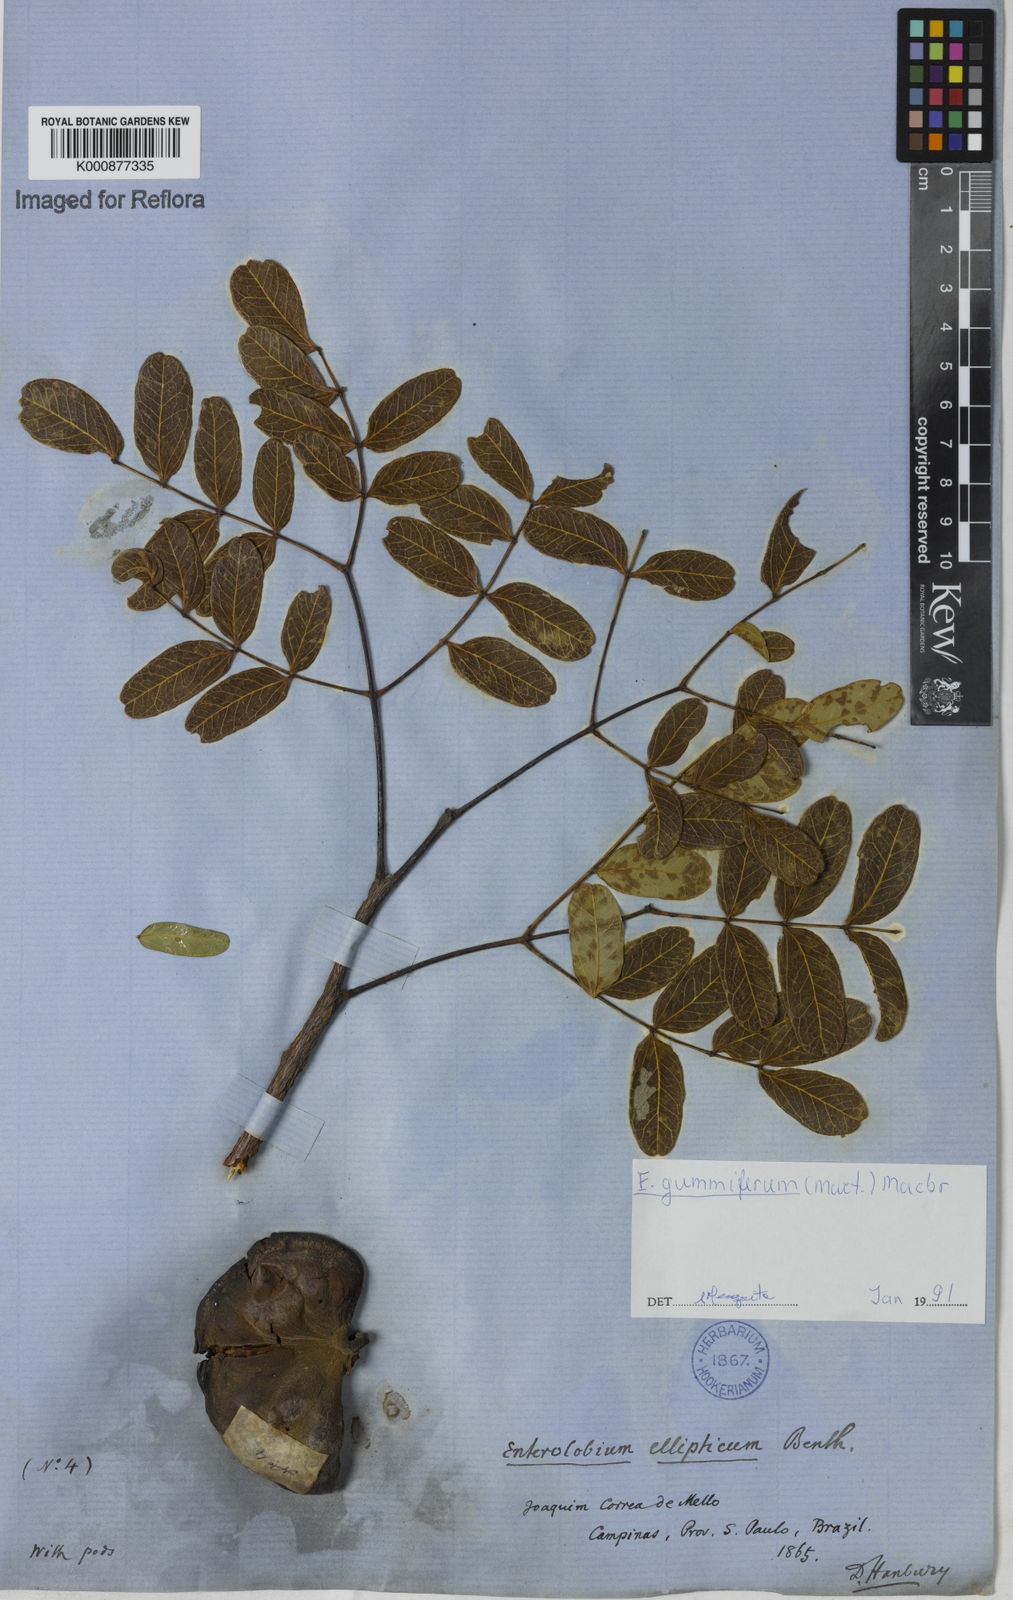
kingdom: Plantae
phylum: Tracheophyta
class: Magnoliopsida
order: Fabales
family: Fabaceae
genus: Enterolobium
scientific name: Enterolobium gummiferum
